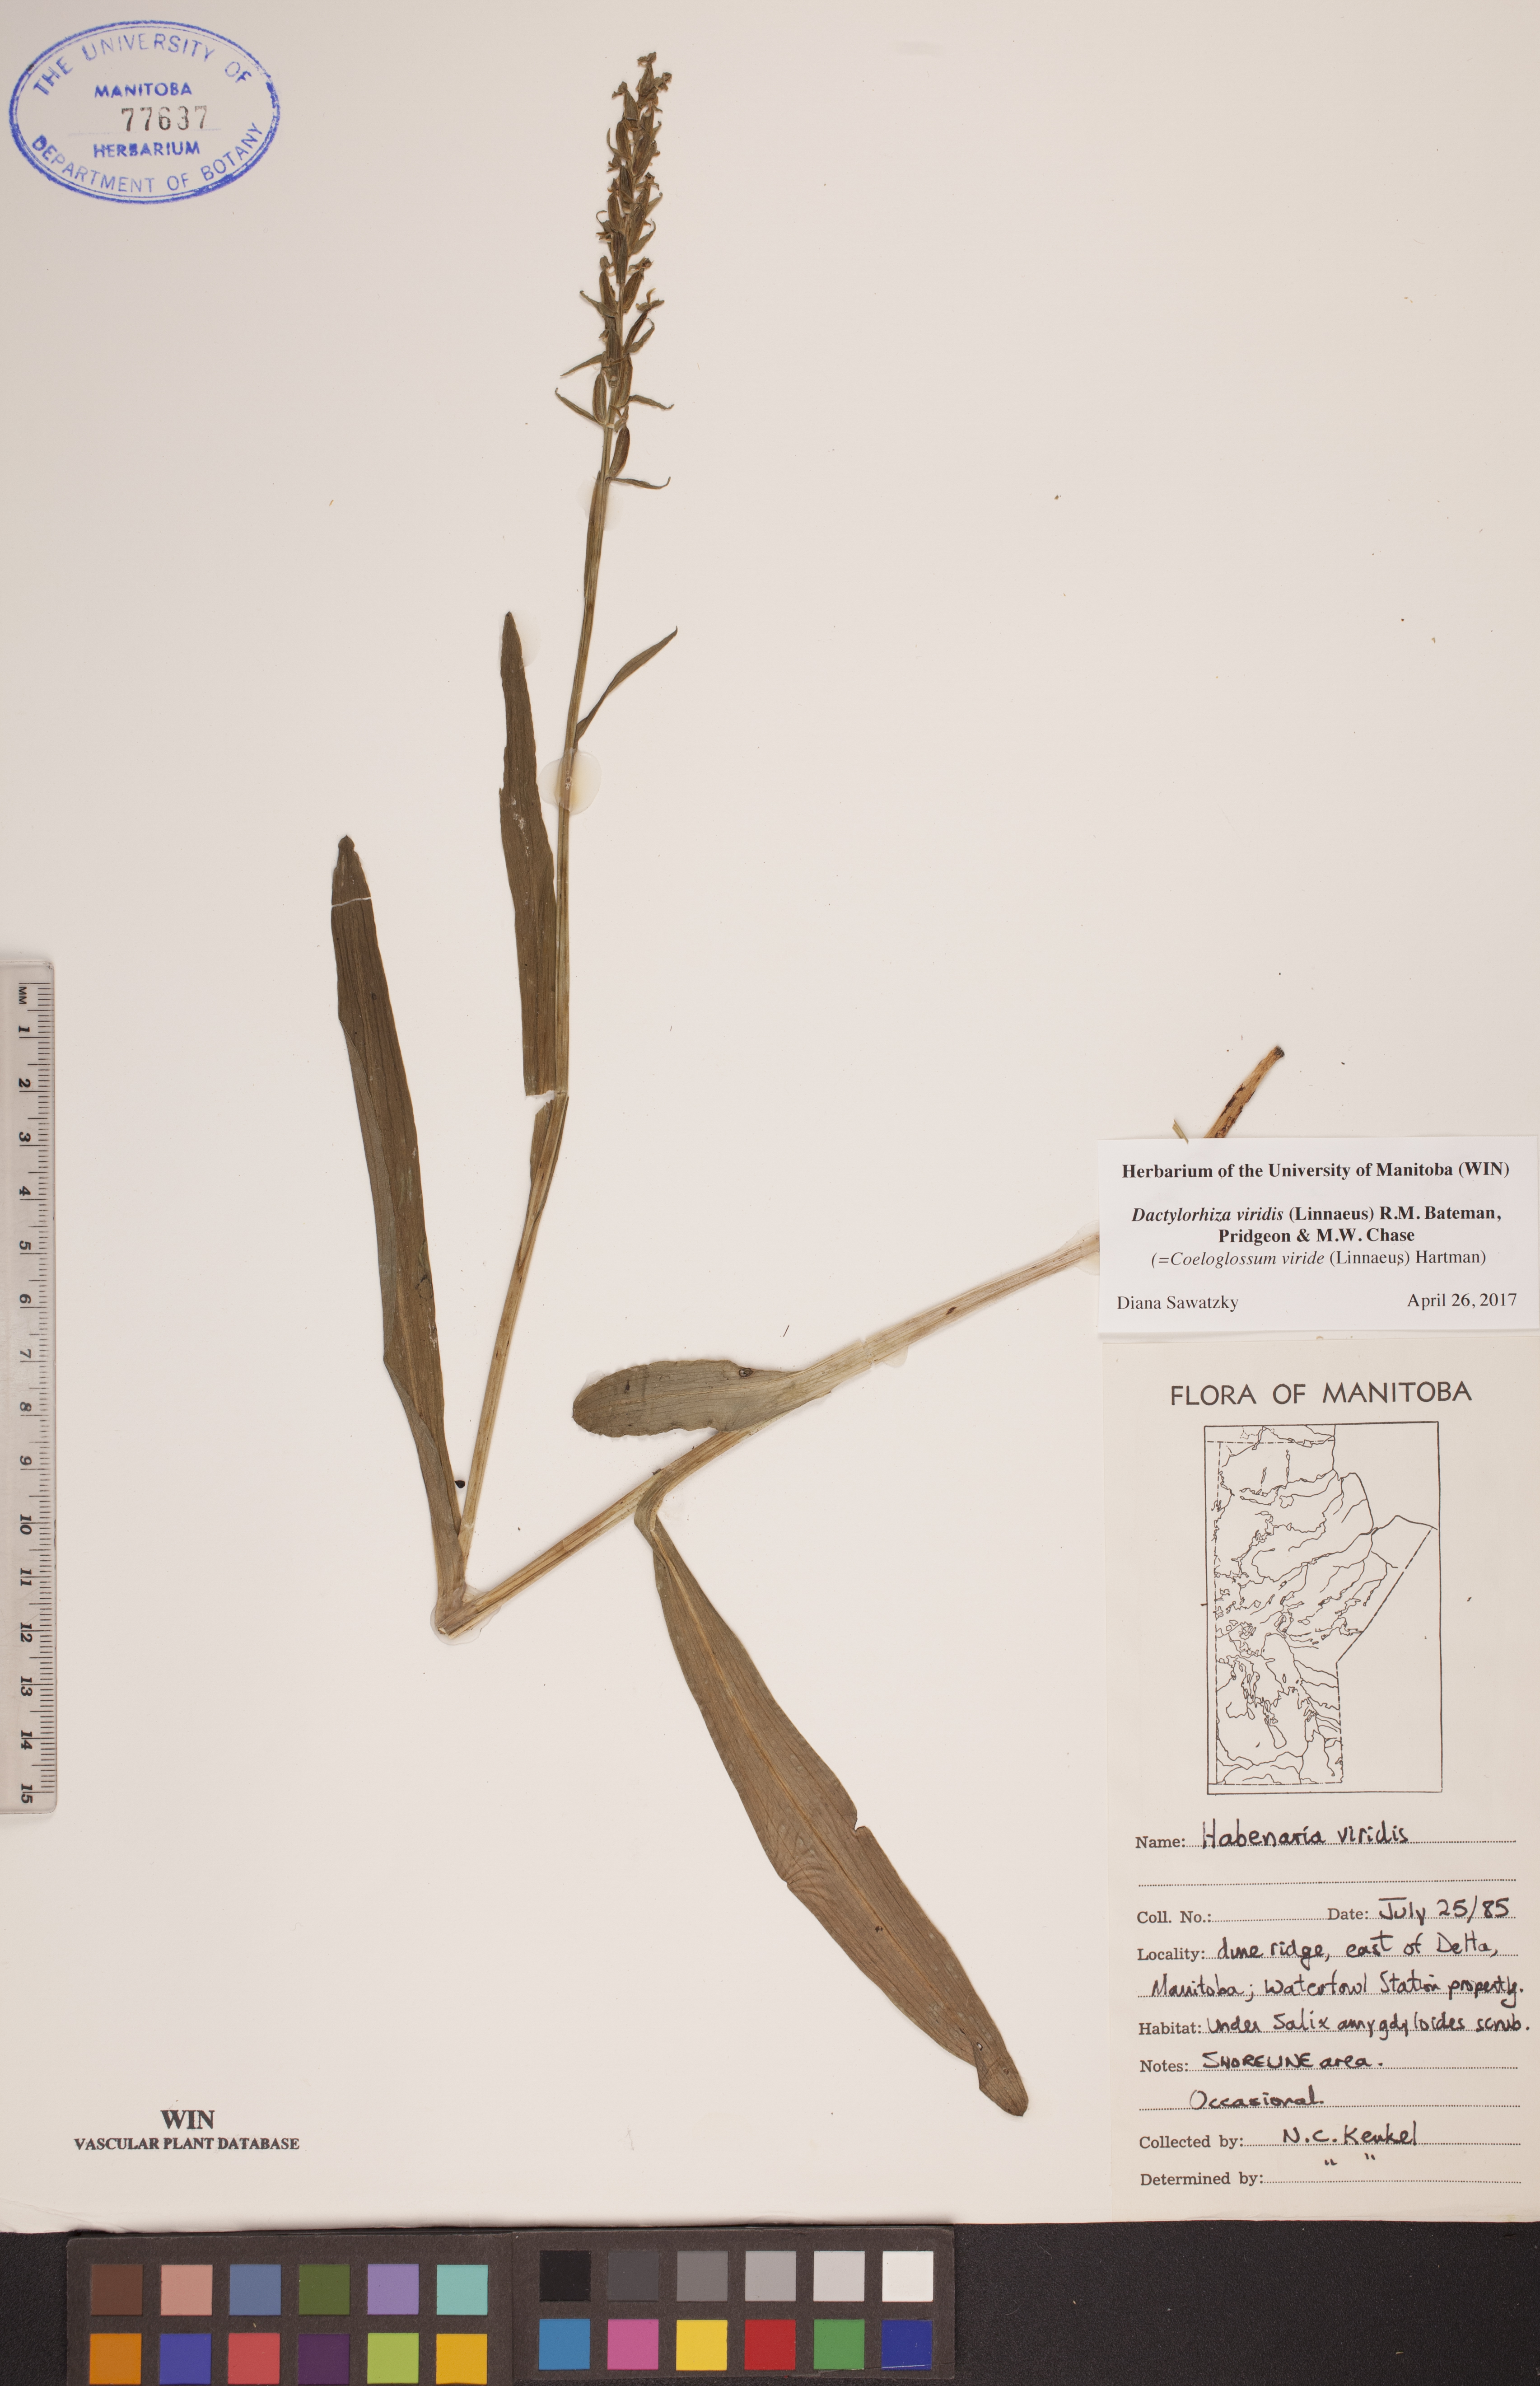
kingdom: Plantae
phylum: Tracheophyta
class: Liliopsida
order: Asparagales
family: Orchidaceae
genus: Dactylorhiza
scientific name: Dactylorhiza viridis
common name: Longbract frog orchid
